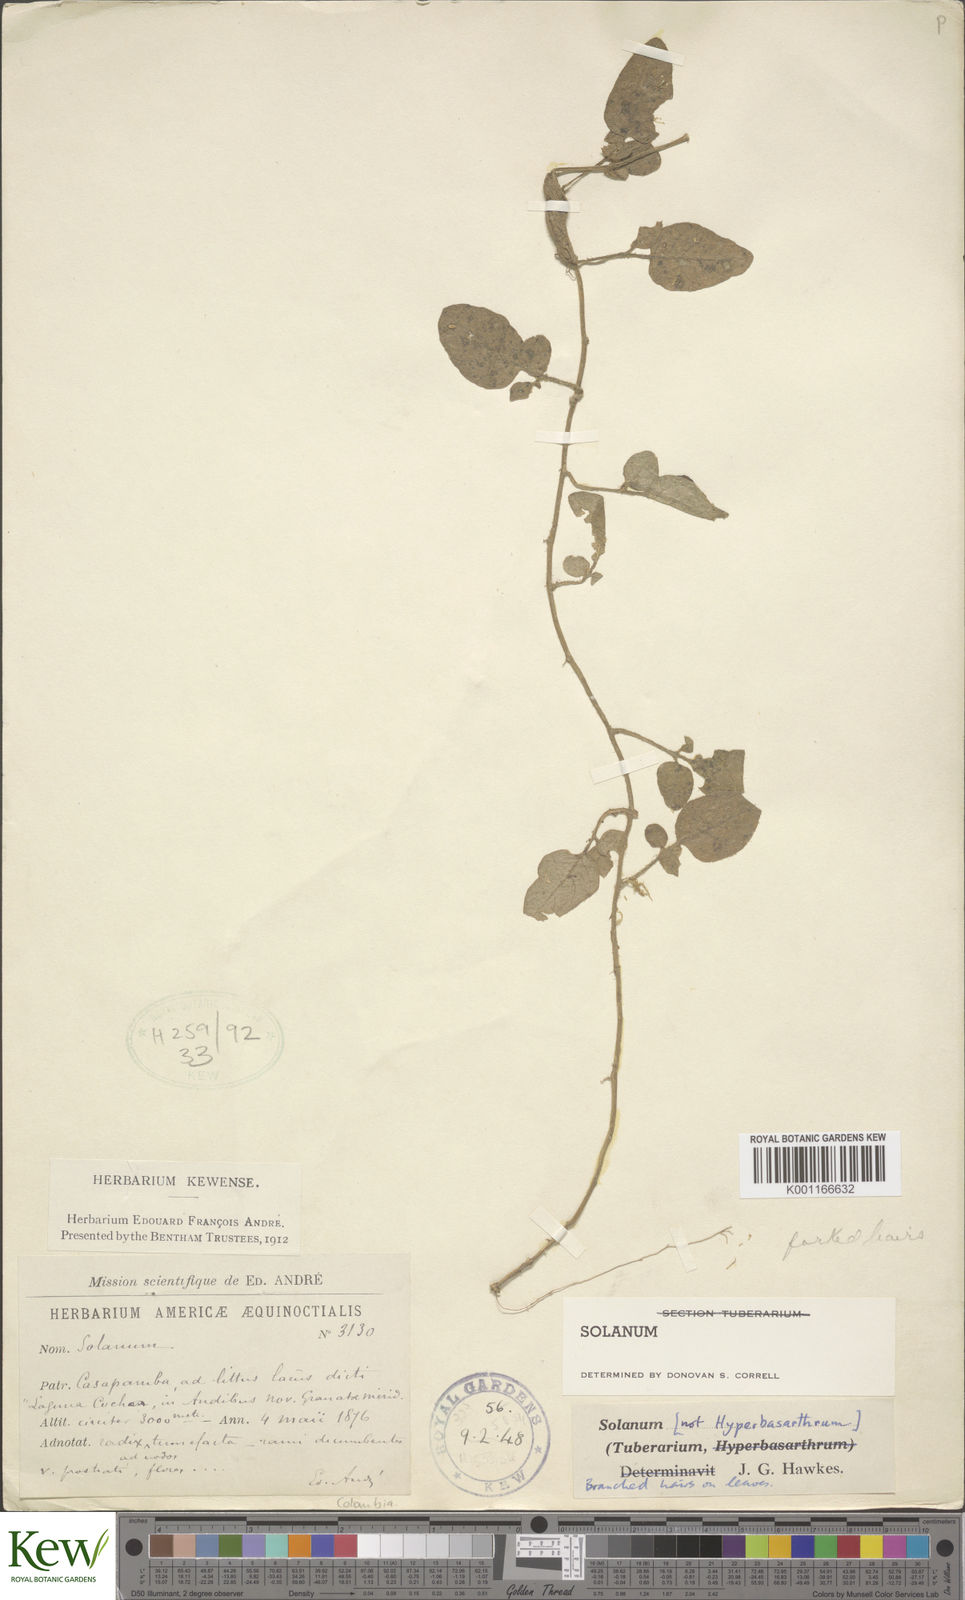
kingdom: Plantae
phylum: Tracheophyta
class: Magnoliopsida
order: Solanales
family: Solanaceae
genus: Solanum
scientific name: Solanum
